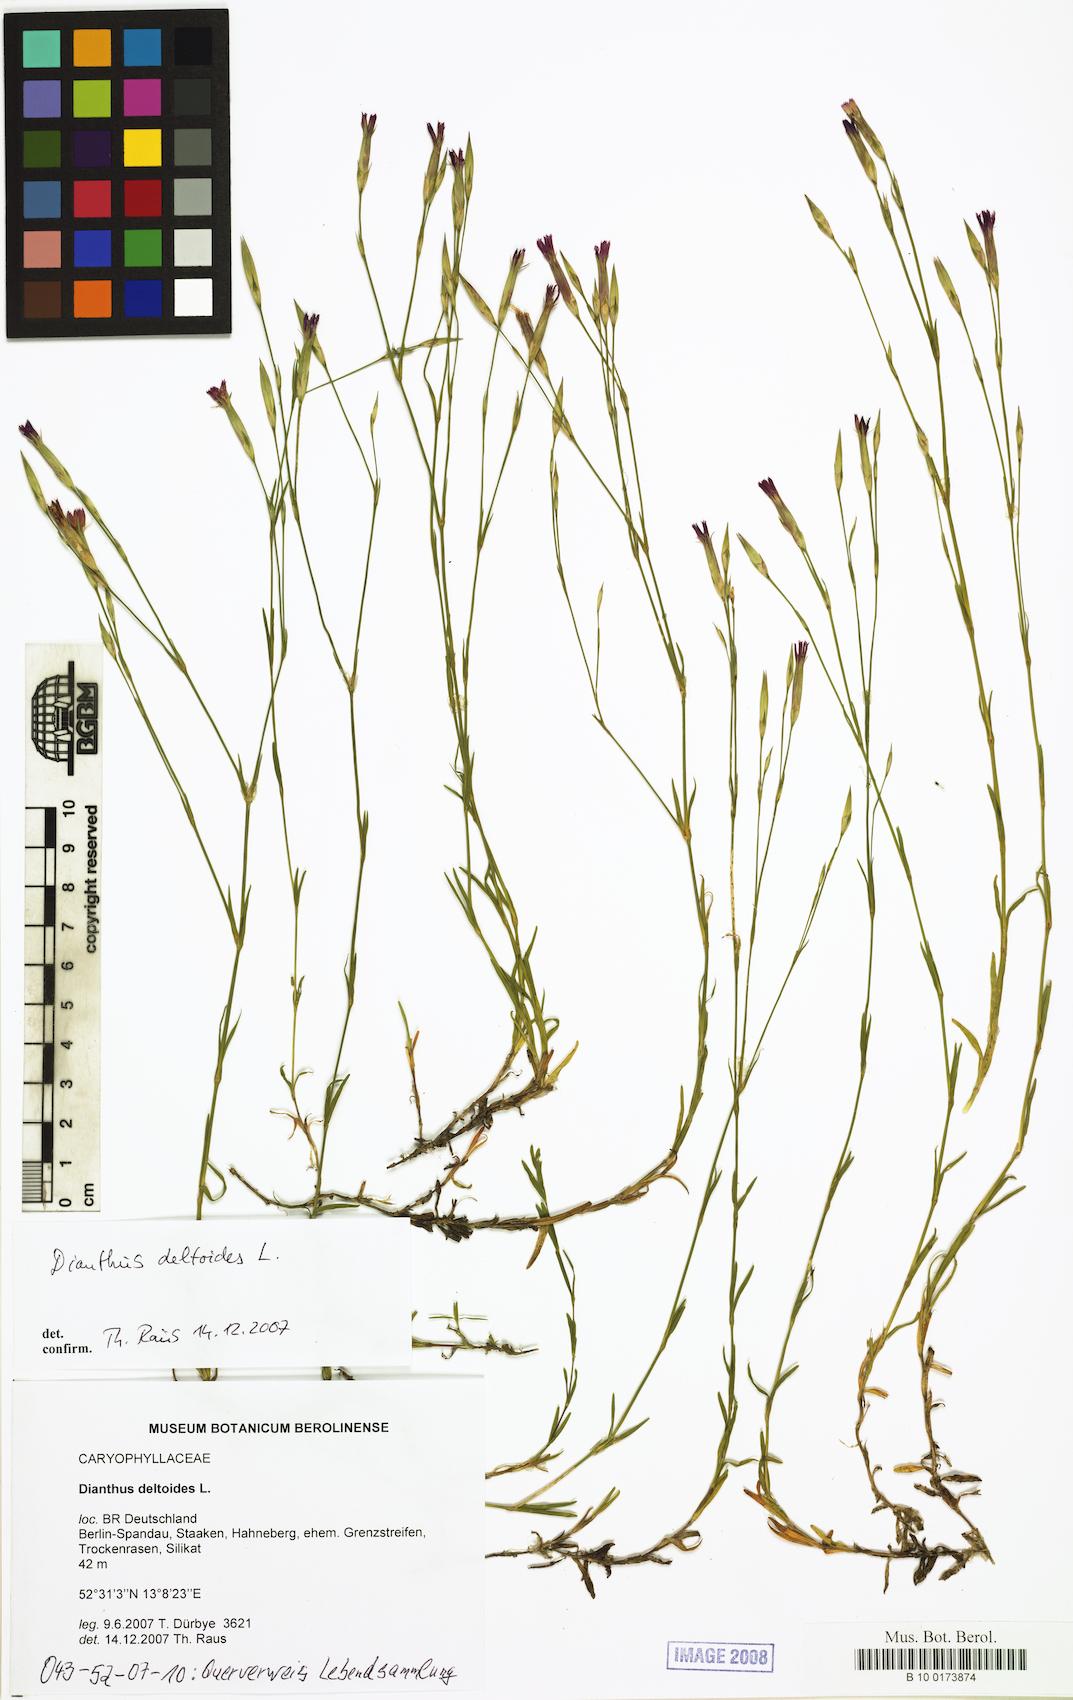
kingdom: Plantae
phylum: Tracheophyta
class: Magnoliopsida
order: Caryophyllales
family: Caryophyllaceae
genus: Dianthus
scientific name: Dianthus deltoides
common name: Maiden pink
